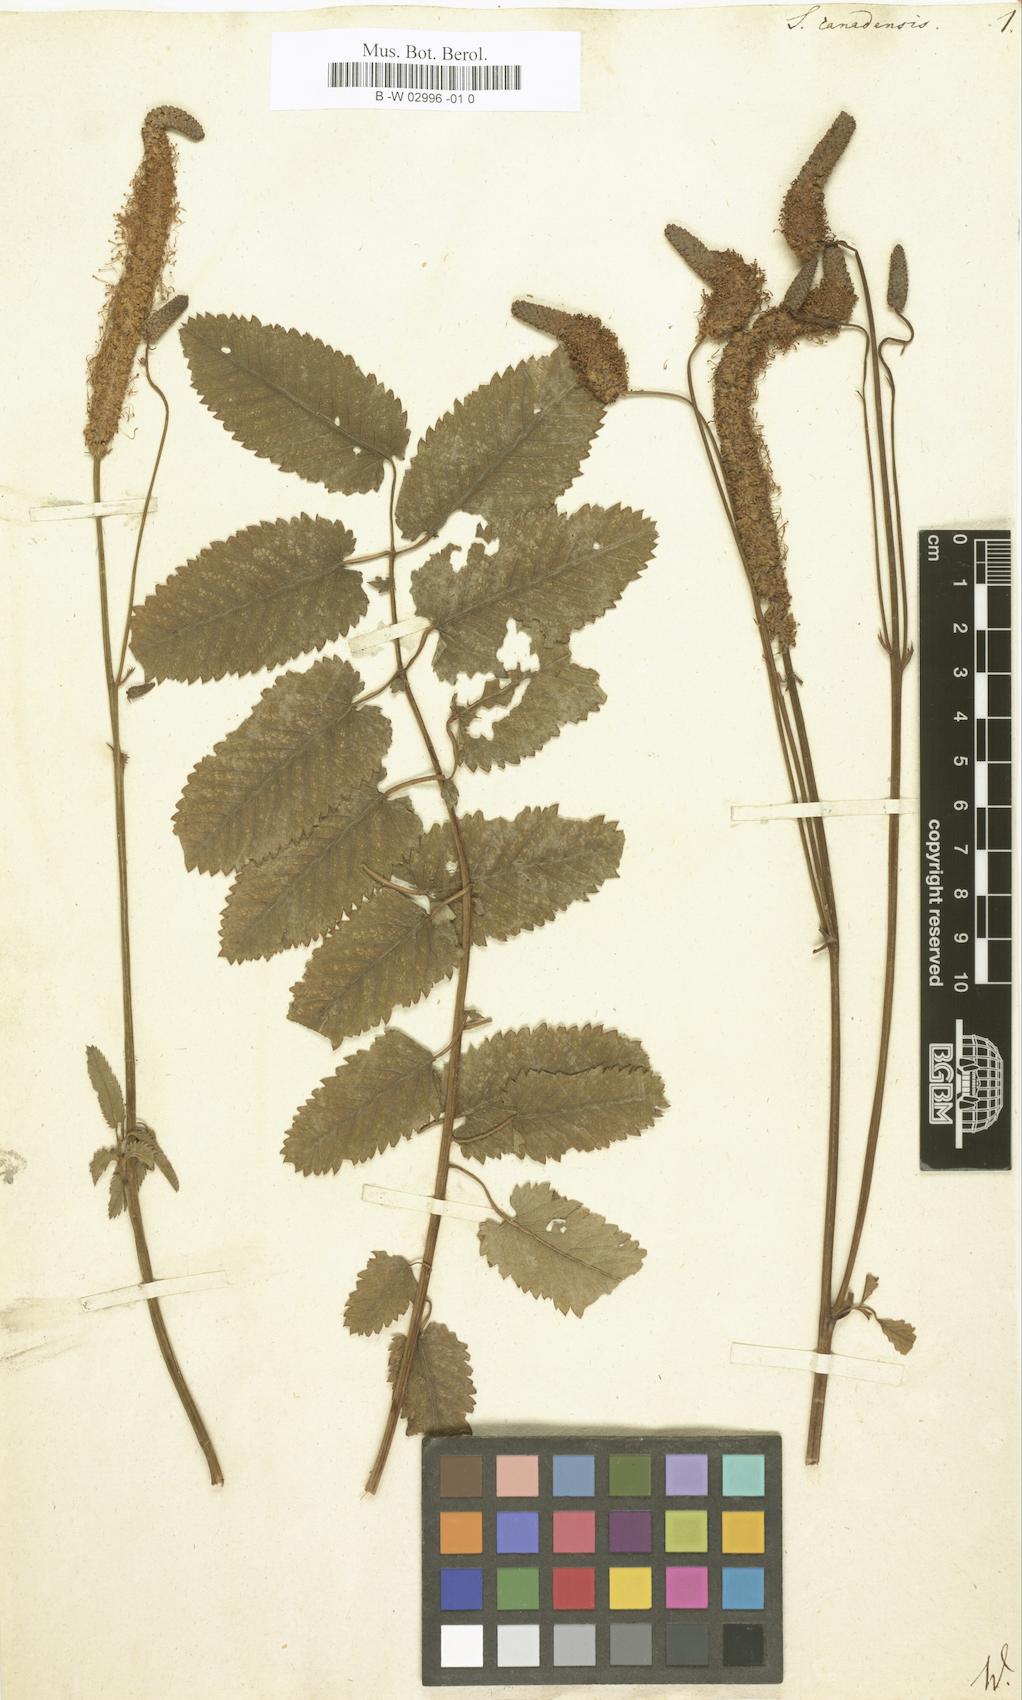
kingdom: Plantae
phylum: Tracheophyta
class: Magnoliopsida
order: Rosales
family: Rosaceae
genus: Sanguisorba
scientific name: Sanguisorba canadensis
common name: White burnet
